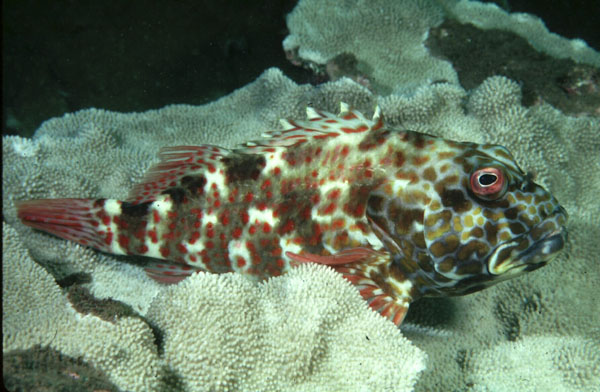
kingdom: Animalia
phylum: Chordata
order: Perciformes
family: Cirrhitidae
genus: Cirrhitus
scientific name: Cirrhitus pinnulatus
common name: Stocky hawkfish
